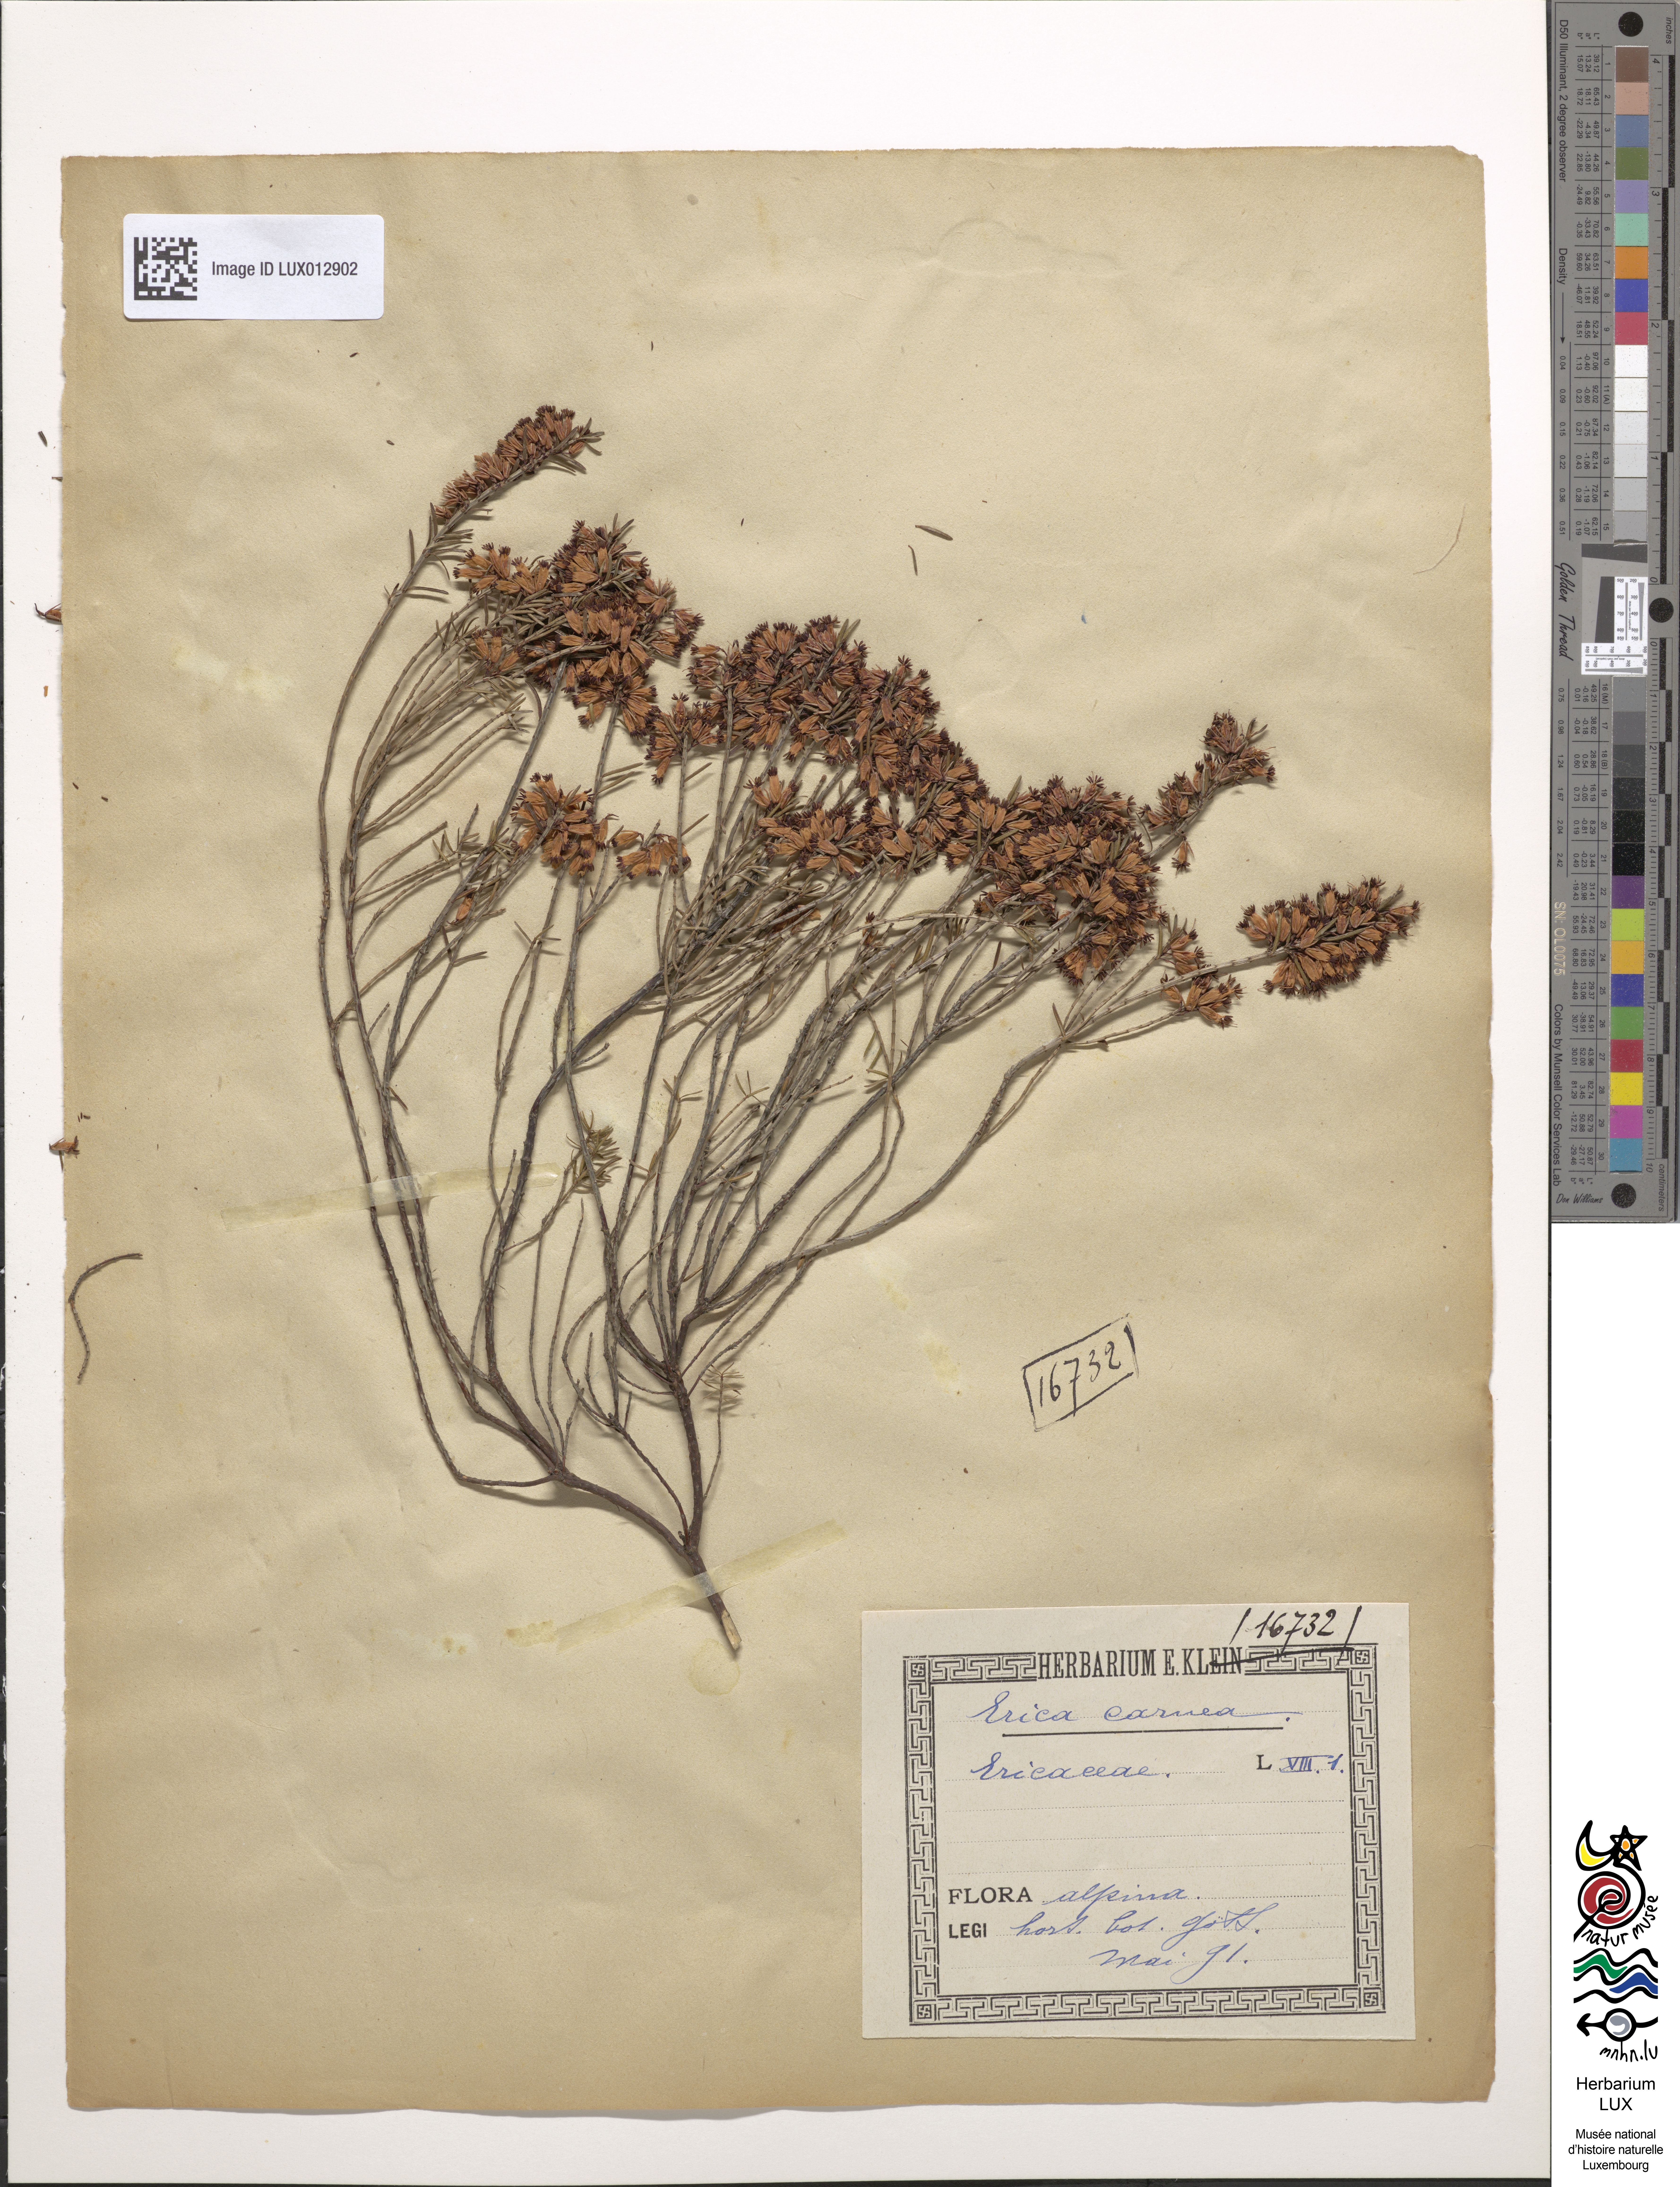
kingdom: Plantae
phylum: Tracheophyta
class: Magnoliopsida
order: Ericales
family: Ericaceae
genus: Erica
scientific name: Erica carnea
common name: Winter heath
